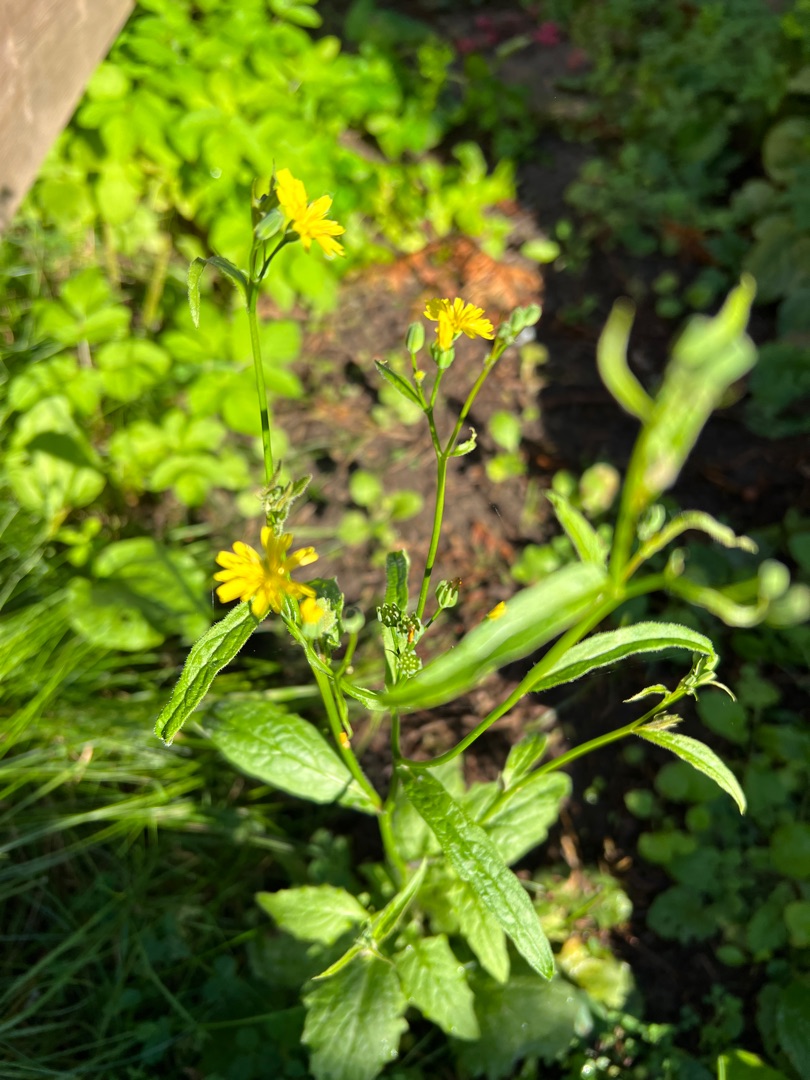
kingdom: Plantae
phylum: Tracheophyta
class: Magnoliopsida
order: Asterales
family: Asteraceae
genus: Lapsana
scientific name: Lapsana communis
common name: Haremad
